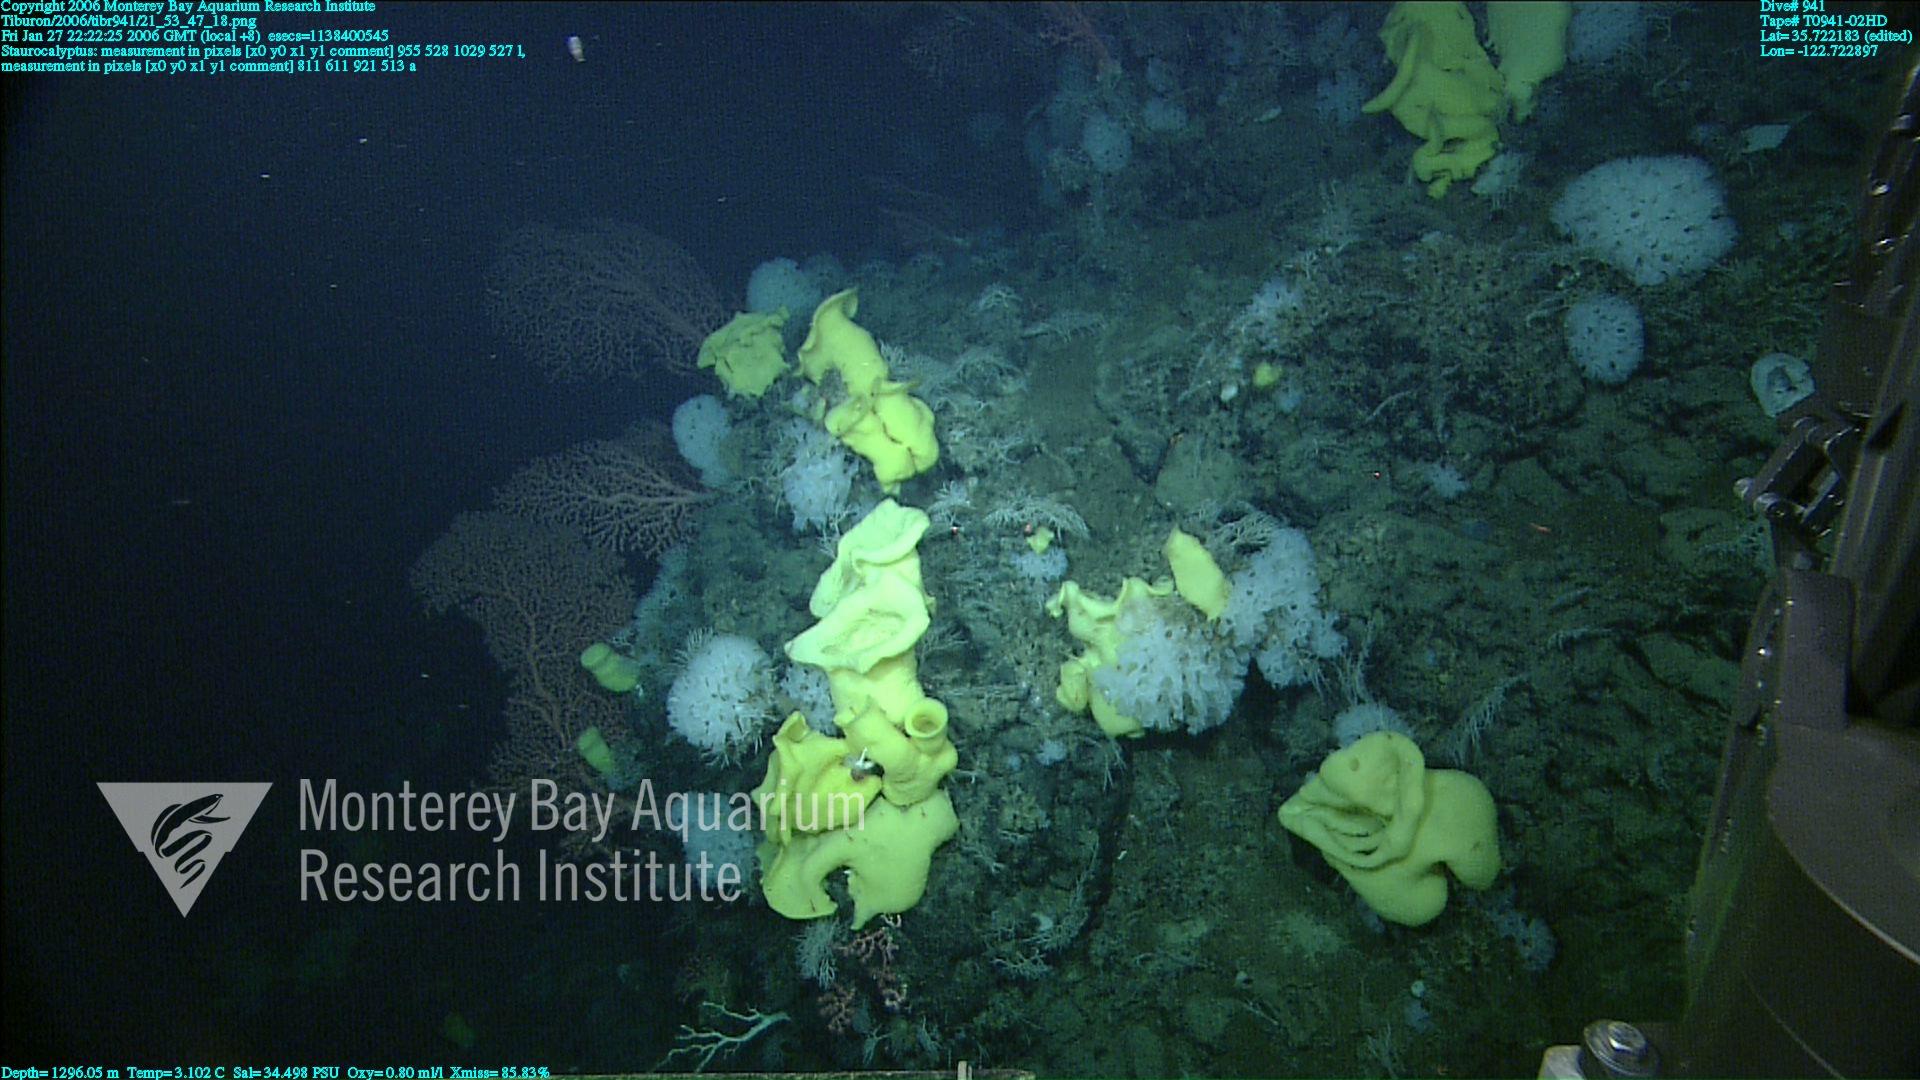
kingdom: Animalia
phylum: Porifera
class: Hexactinellida
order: Lyssacinosida
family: Rossellidae
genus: Staurocalyptus
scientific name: Staurocalyptus
